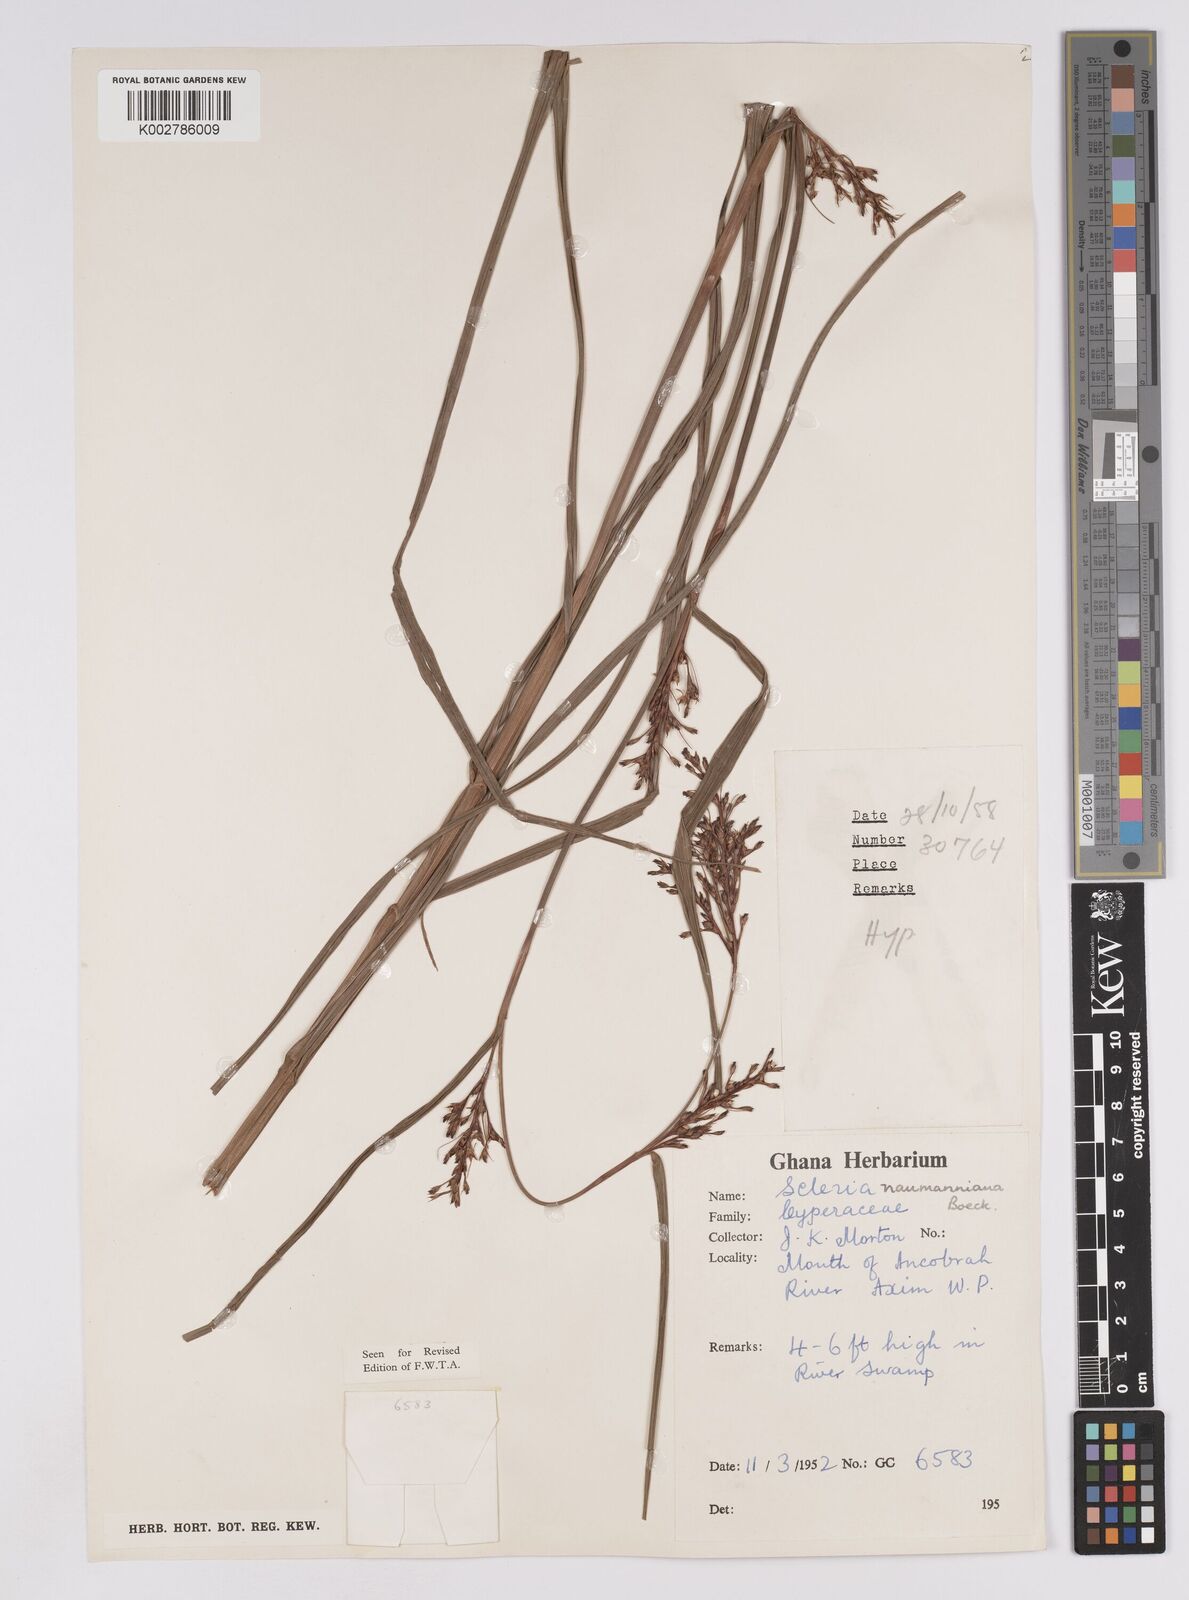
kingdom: Plantae
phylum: Tracheophyta
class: Liliopsida
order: Poales
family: Cyperaceae
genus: Scleria
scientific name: Scleria naumanniana
